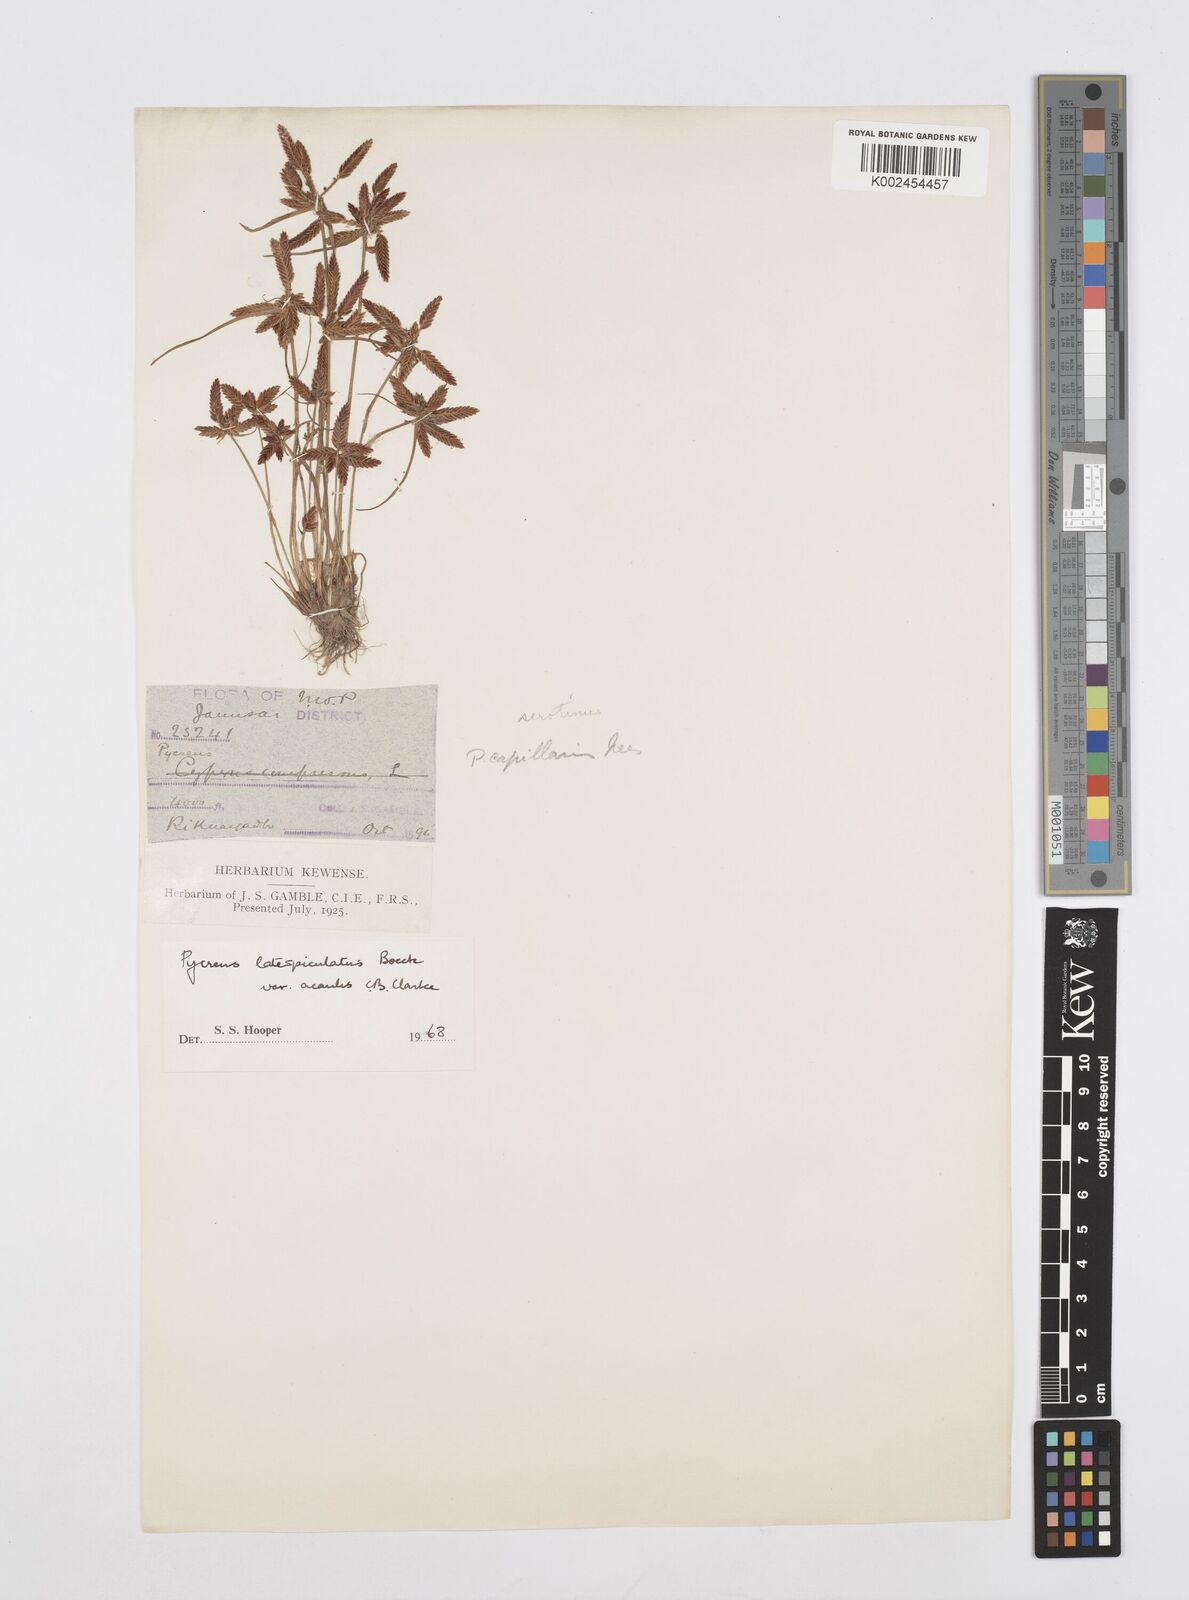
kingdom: Plantae
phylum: Tracheophyta
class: Liliopsida
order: Poales
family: Cyperaceae
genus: Cyperus
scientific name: Cyperus diaphanus
